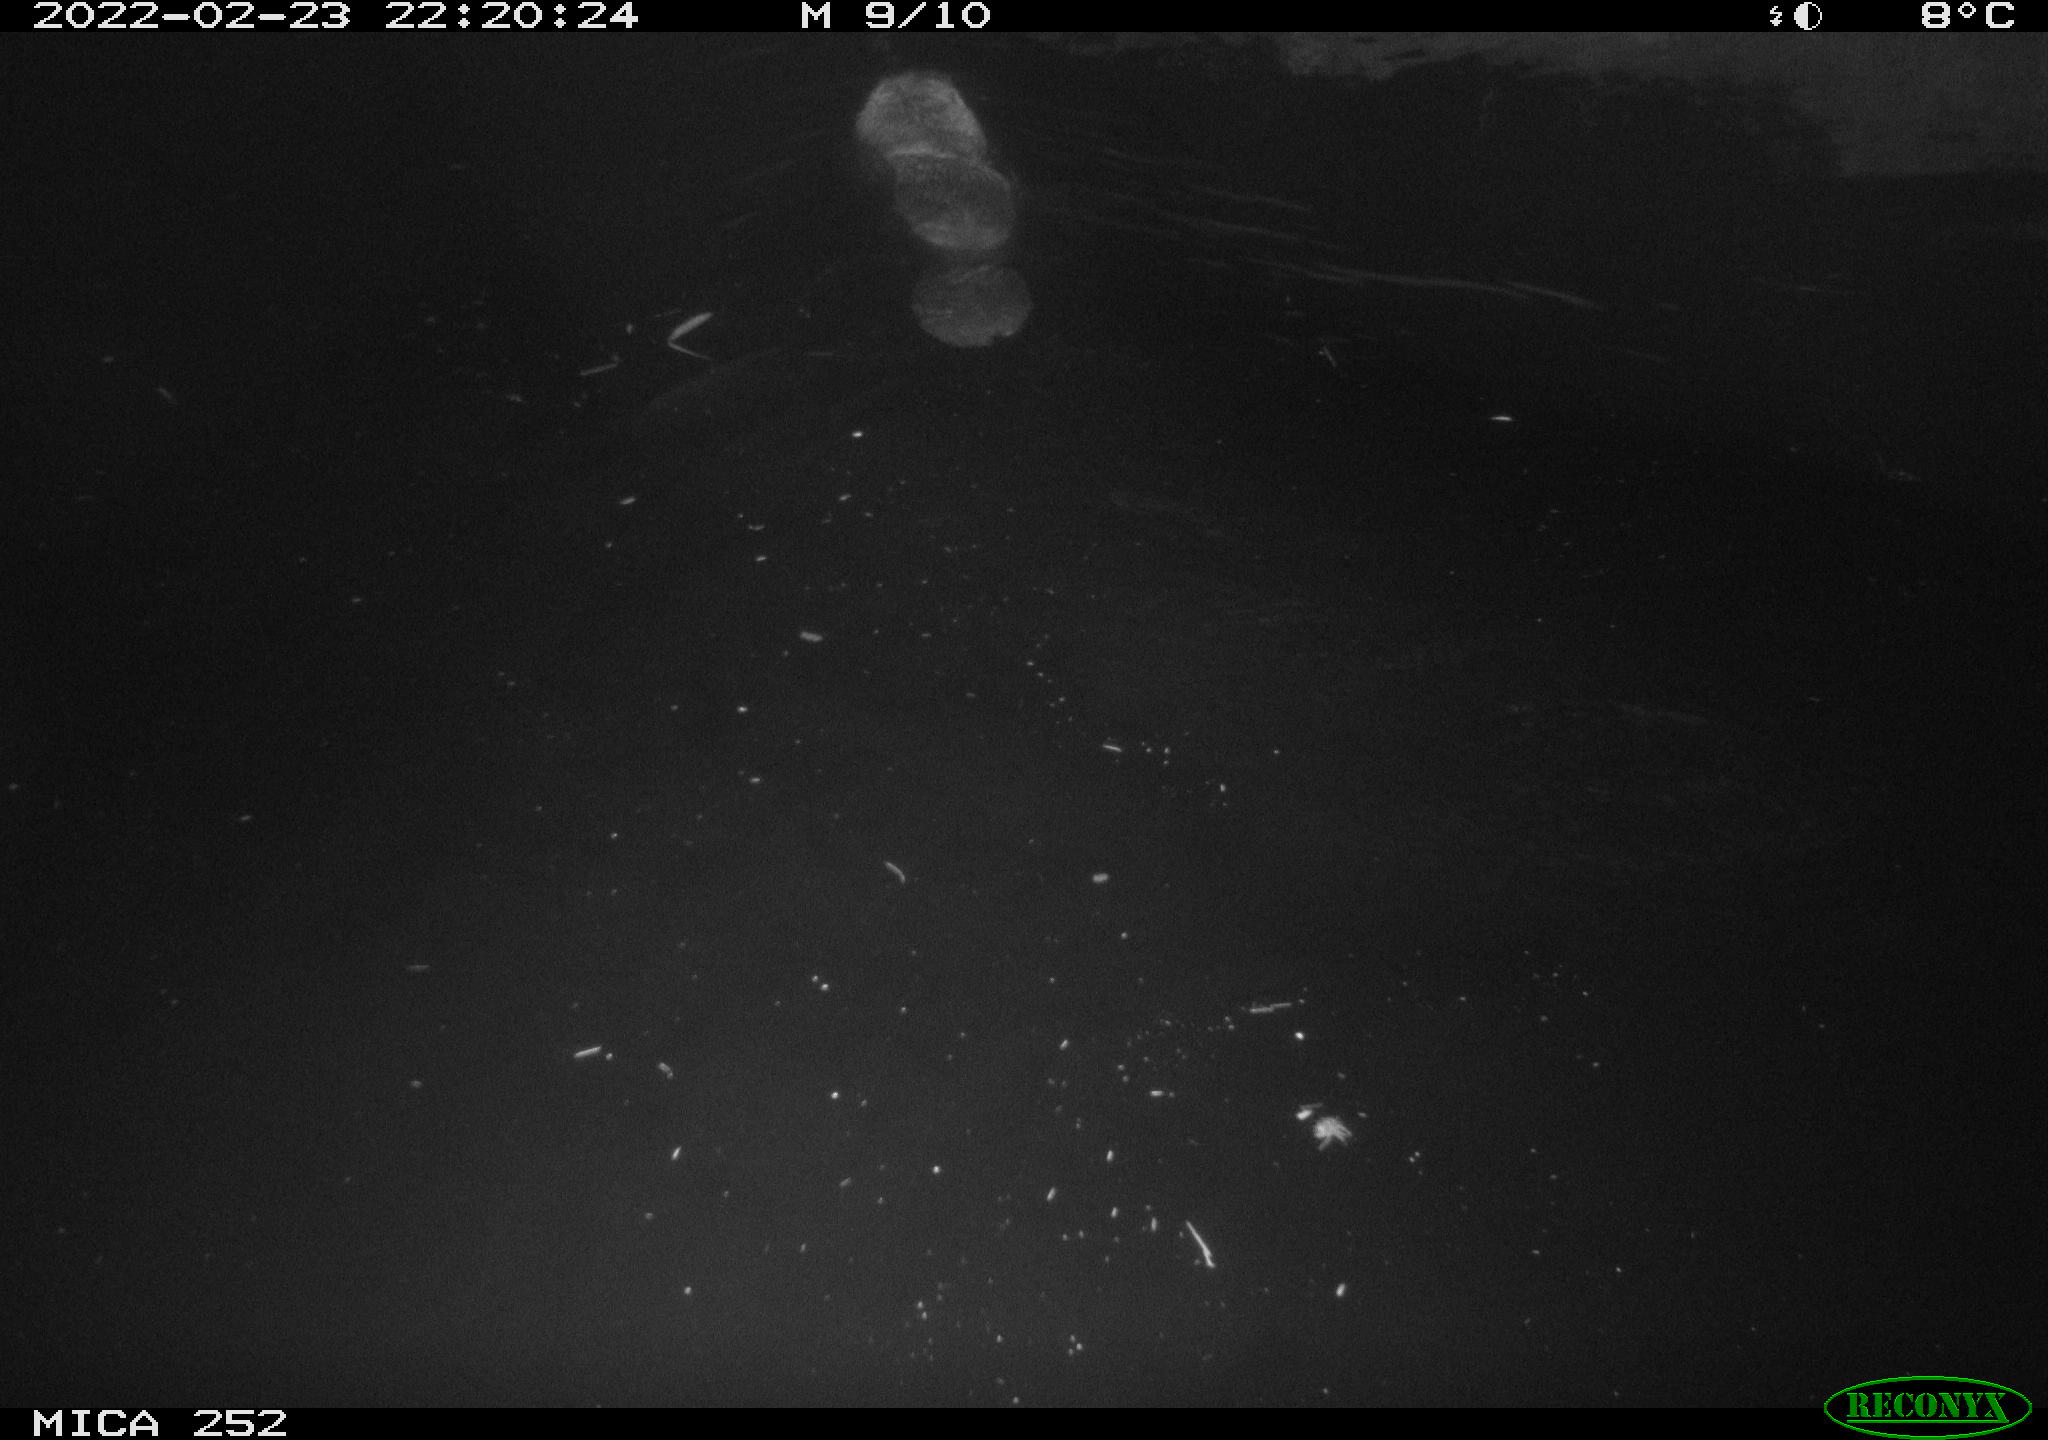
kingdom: Animalia
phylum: Chordata
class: Mammalia
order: Rodentia
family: Castoridae
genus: Castor
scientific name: Castor fiber
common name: Eurasian beaver
